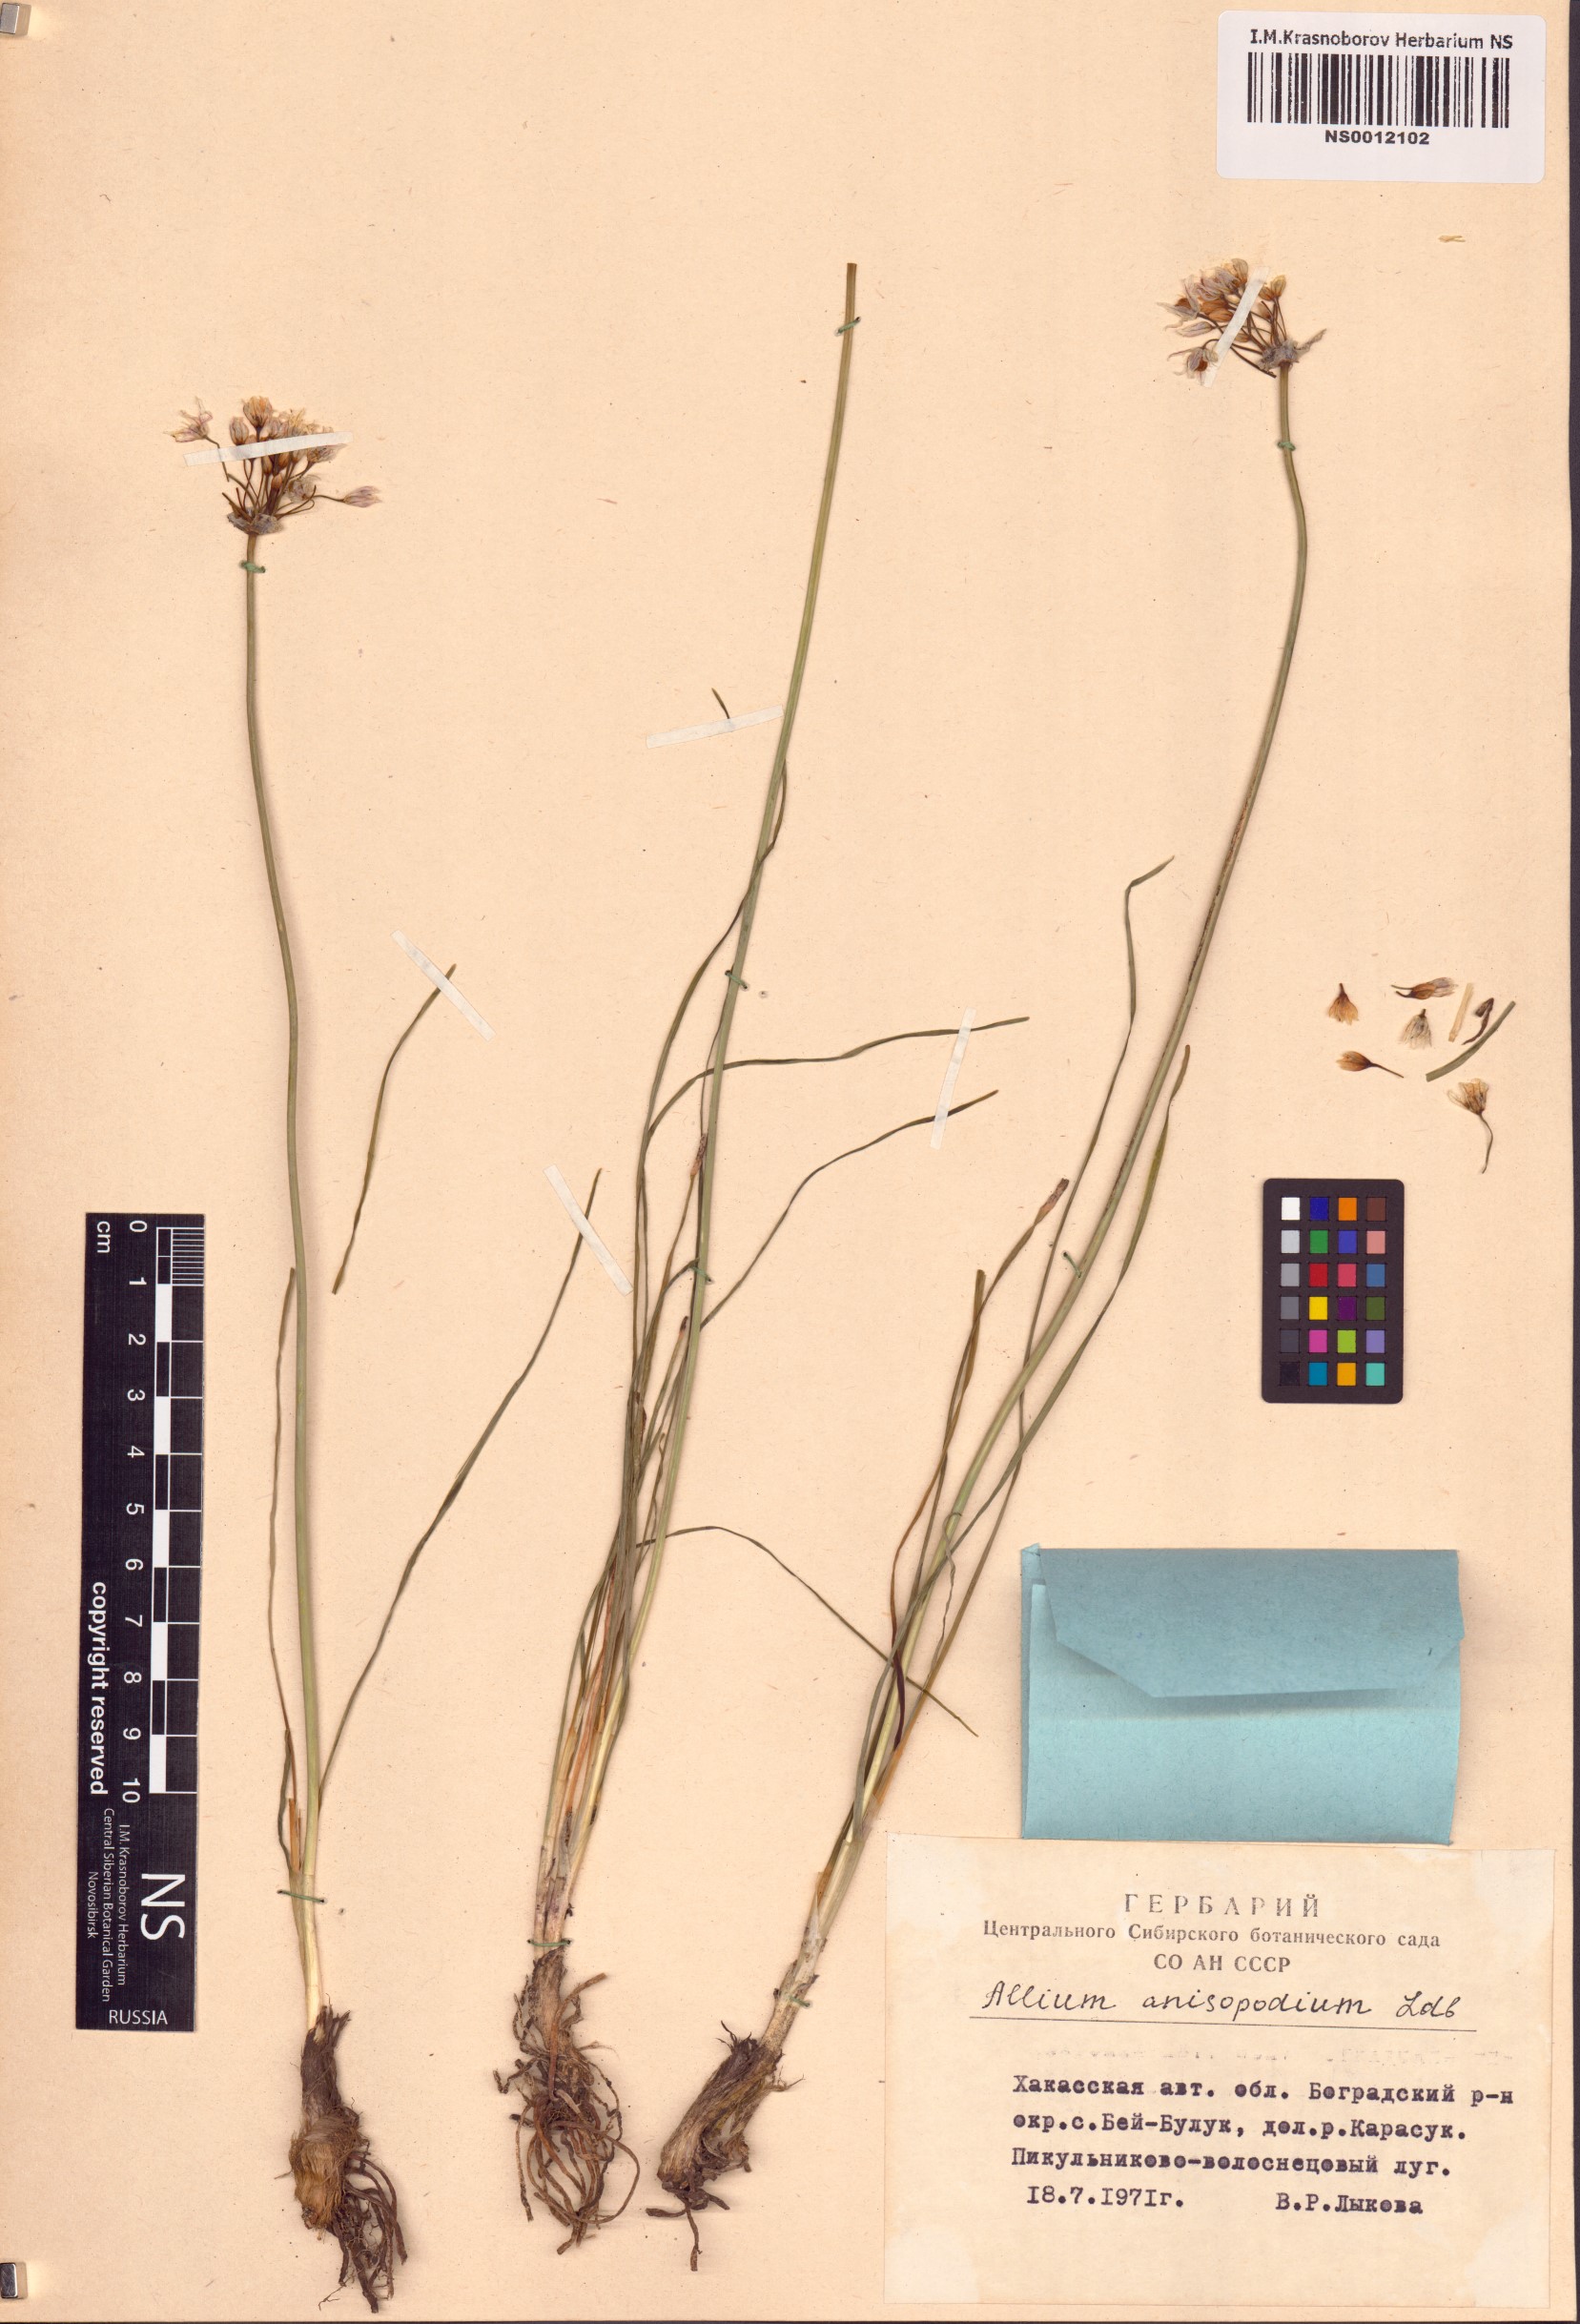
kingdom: Plantae
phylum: Tracheophyta
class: Liliopsida
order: Asparagales
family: Amaryllidaceae
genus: Allium
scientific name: Allium anisopodium
